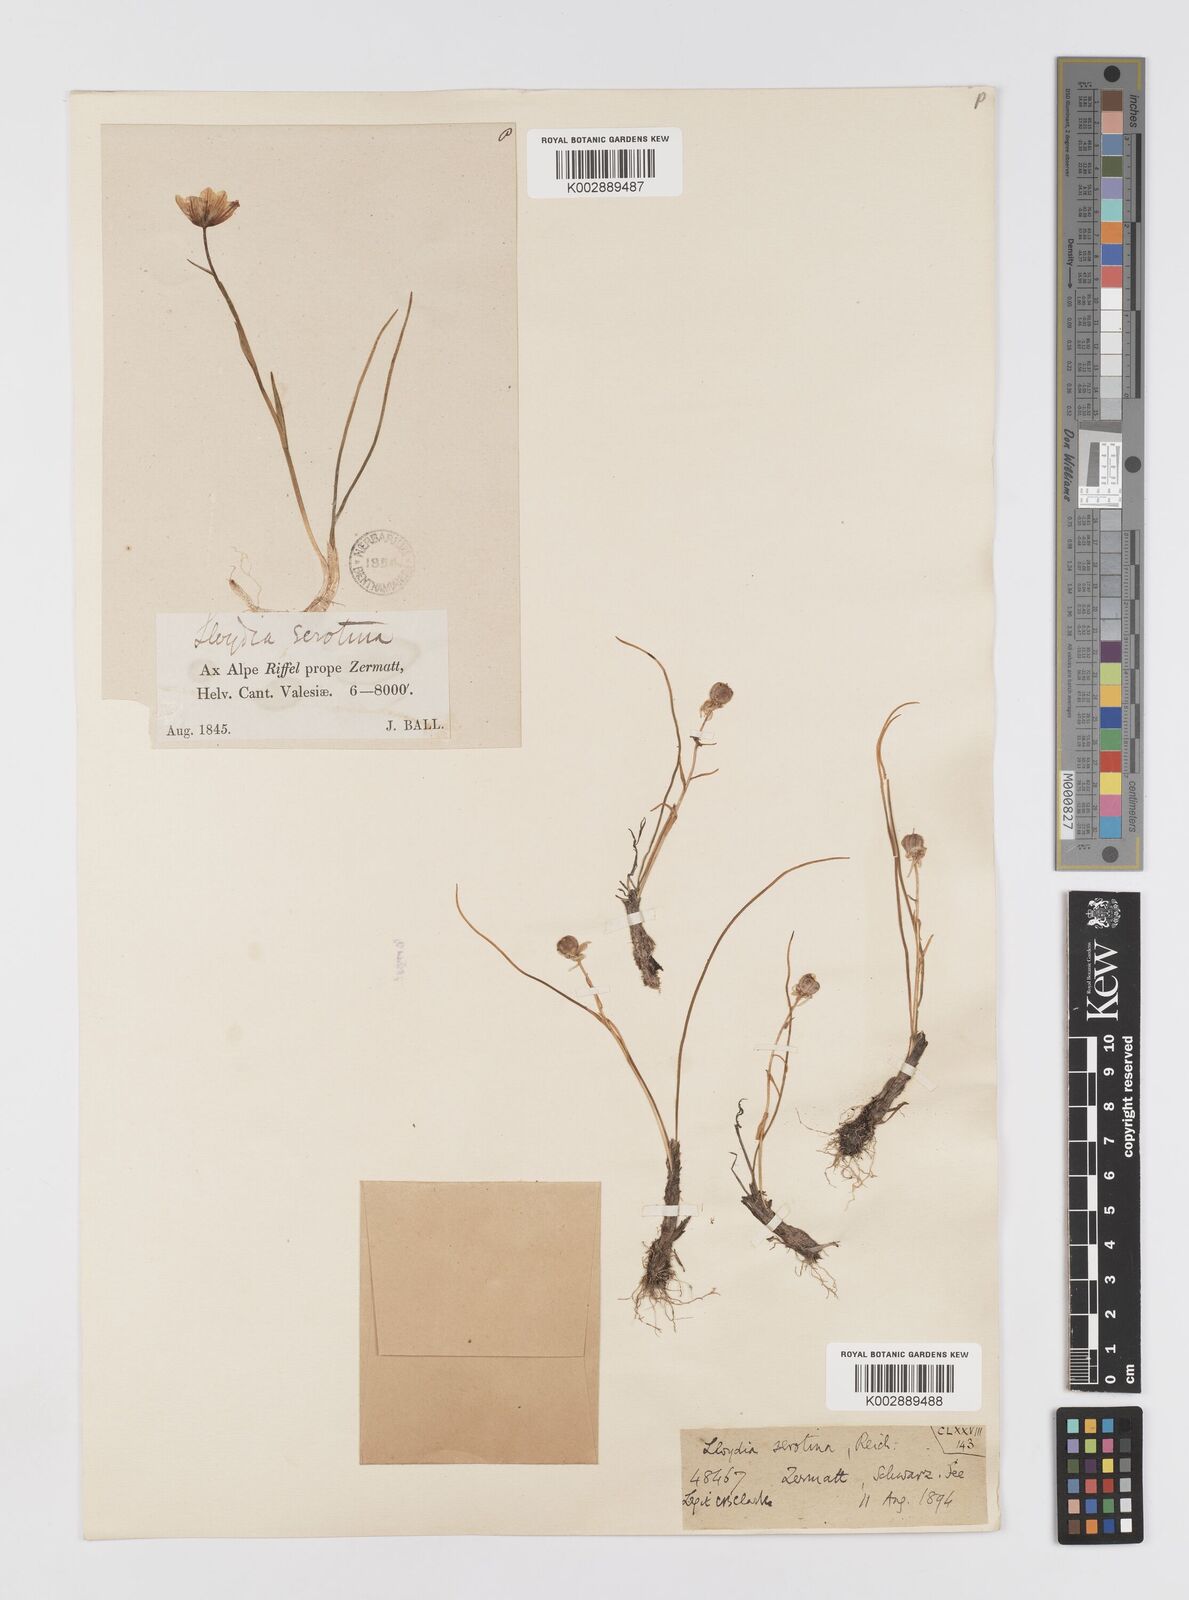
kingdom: Plantae
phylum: Tracheophyta
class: Liliopsida
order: Liliales
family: Liliaceae
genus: Gagea
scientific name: Gagea
